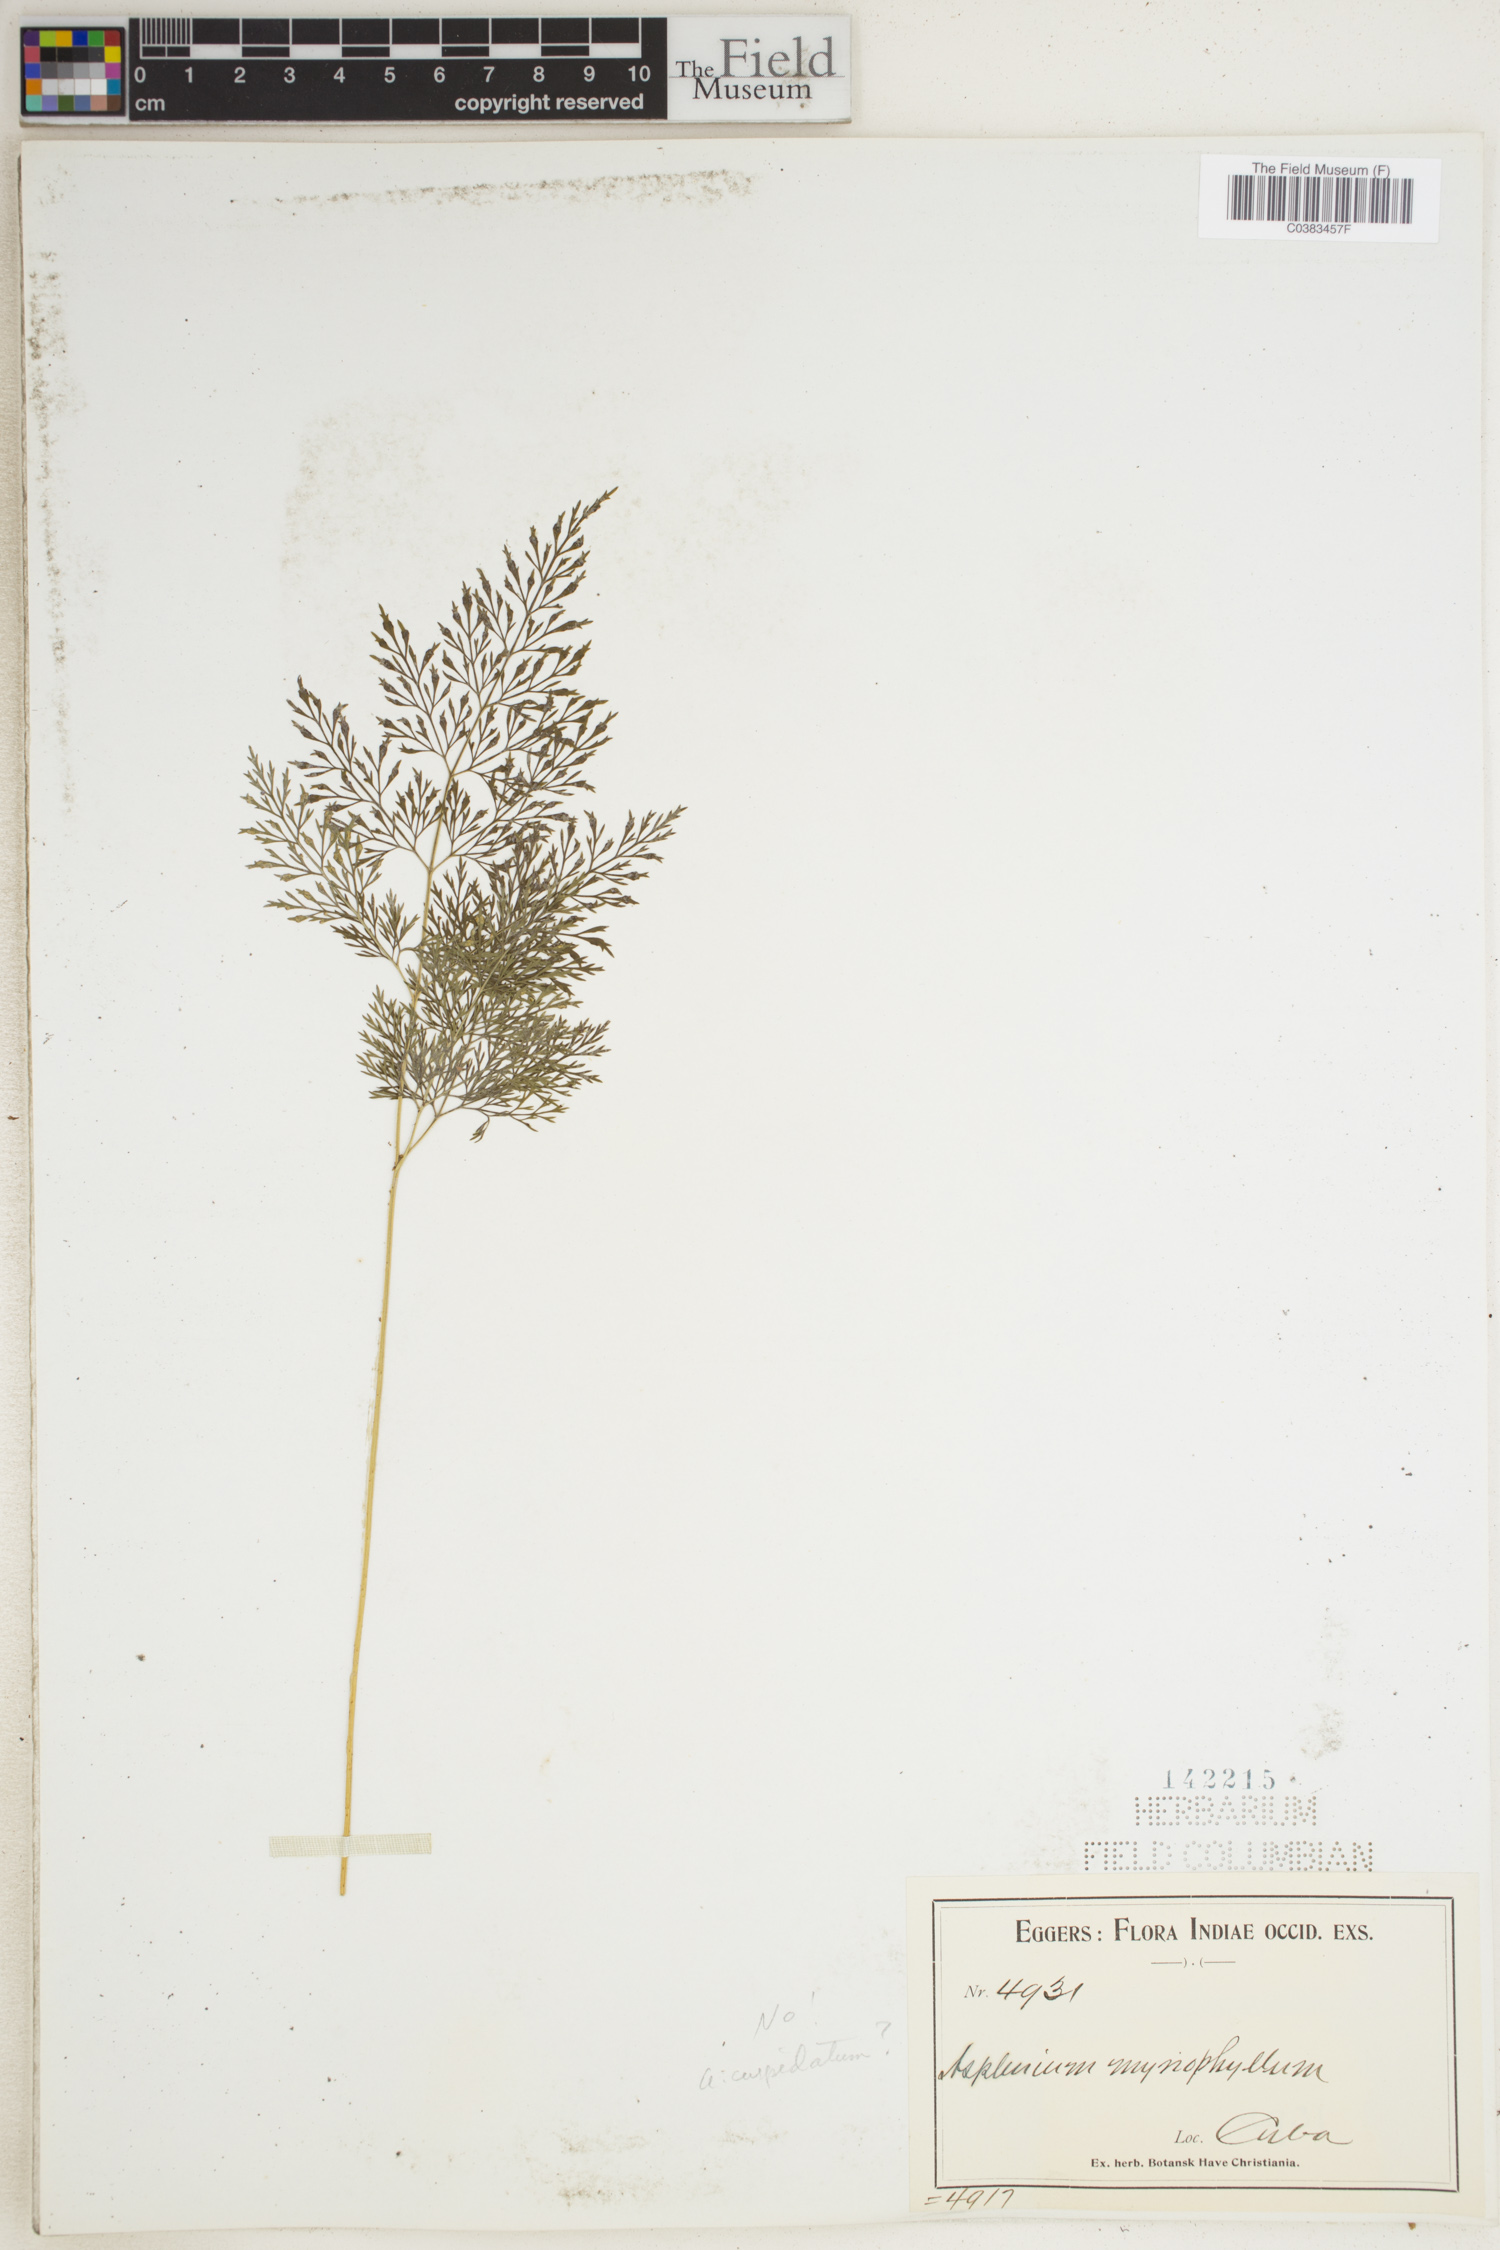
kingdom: Plantae
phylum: Tracheophyta
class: Polypodiopsida
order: Polypodiales
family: Aspleniaceae
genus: Asplenium
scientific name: Asplenium myriophyllum
